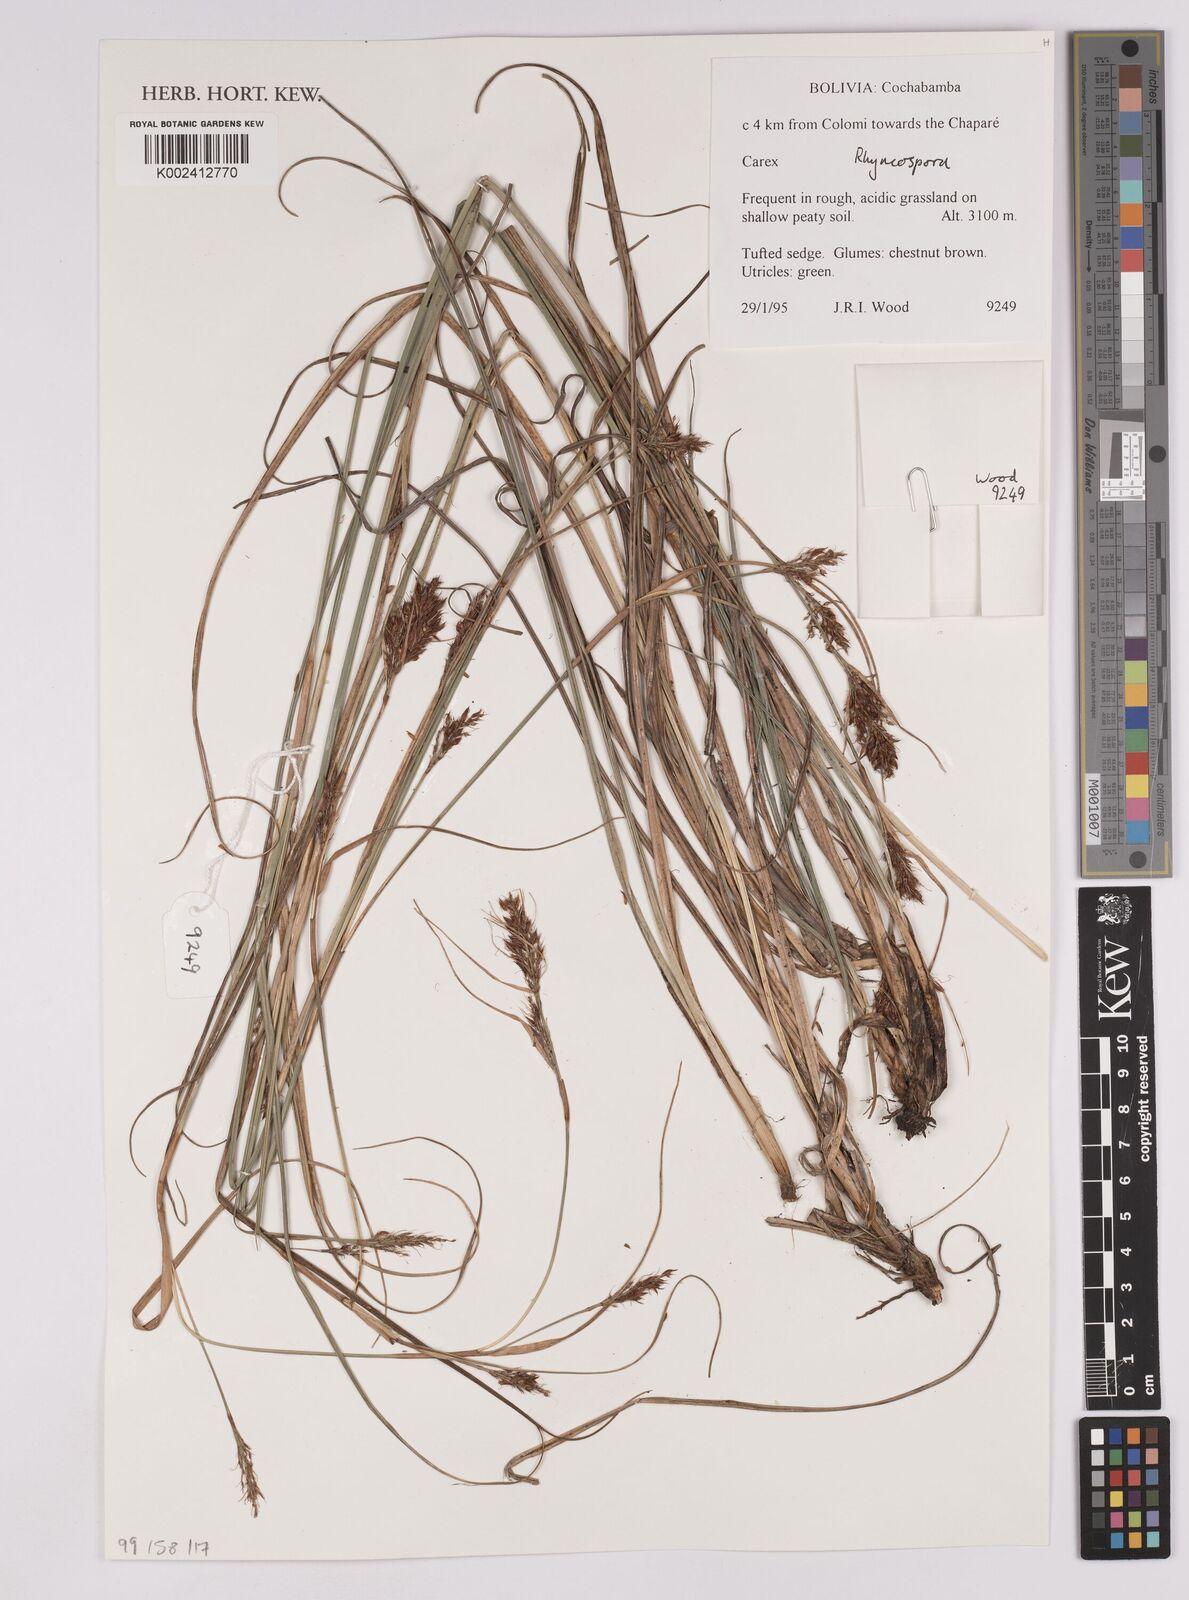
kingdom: Plantae
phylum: Tracheophyta
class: Liliopsida
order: Poales
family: Cyperaceae
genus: Rhynchospora
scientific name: Rhynchospora
